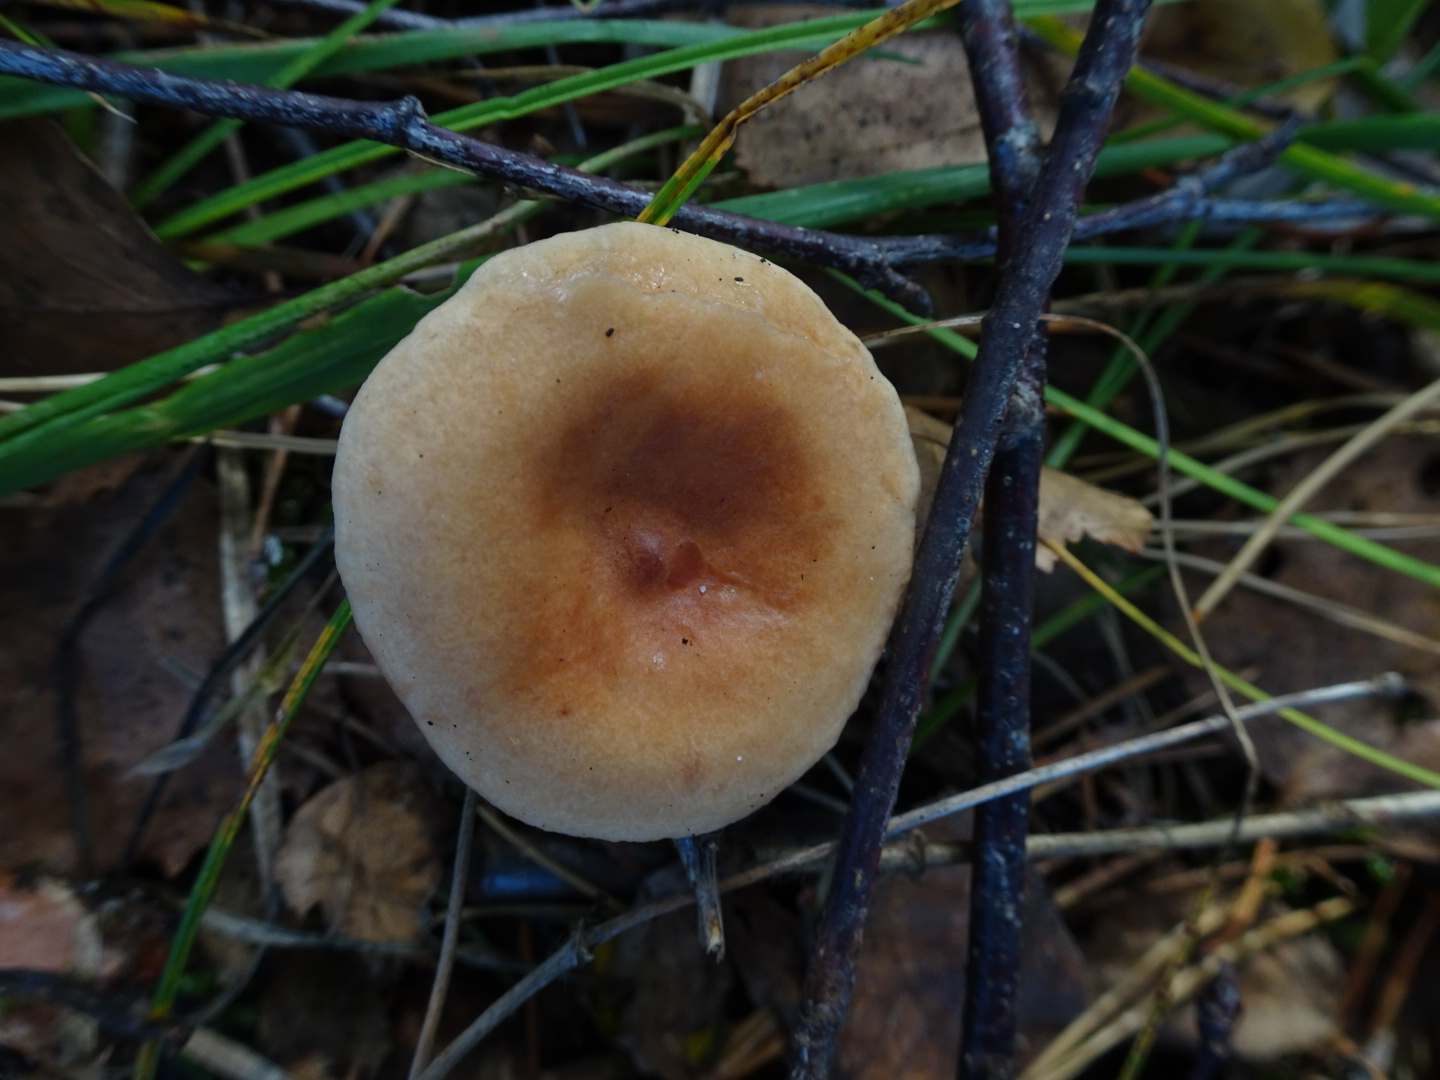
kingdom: Fungi
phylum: Basidiomycota
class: Agaricomycetes
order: Russulales
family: Russulaceae
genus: Lactarius
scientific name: Lactarius tabidus
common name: rynket mælkehat
